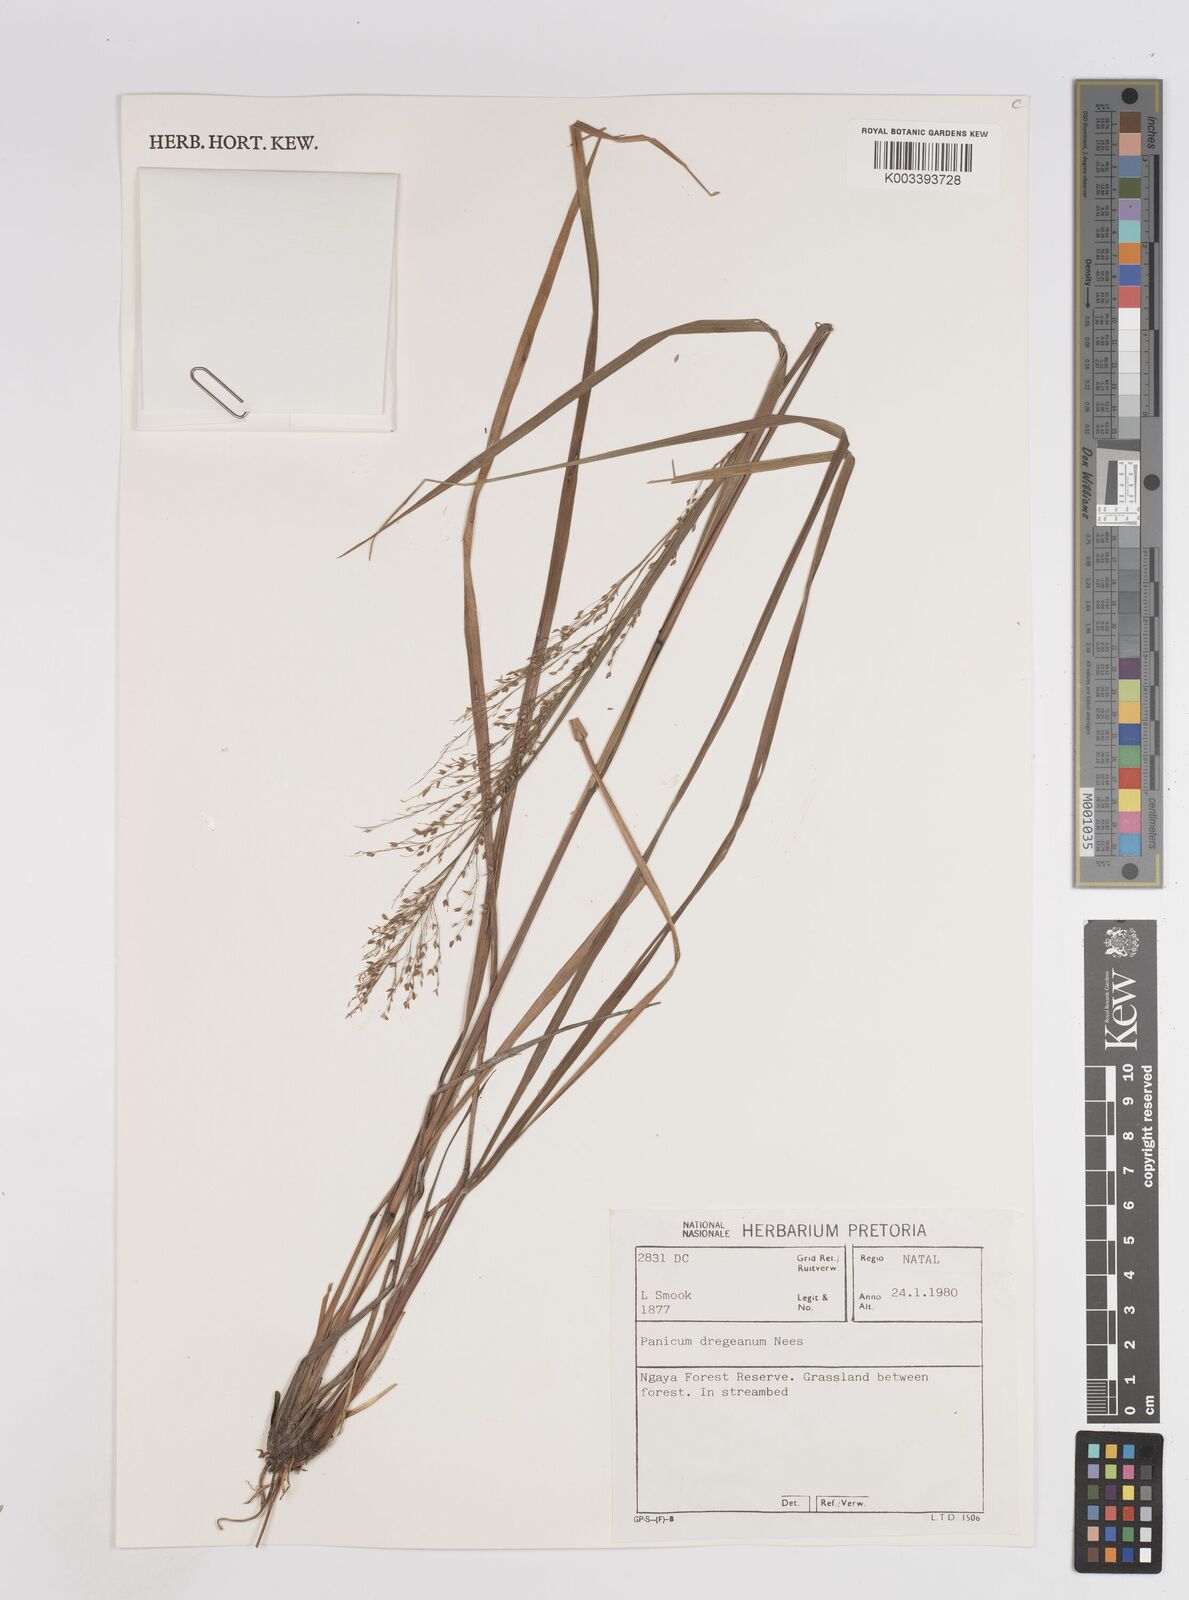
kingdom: Plantae
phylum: Tracheophyta
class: Liliopsida
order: Poales
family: Poaceae
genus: Panicum
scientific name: Panicum dregeanum
